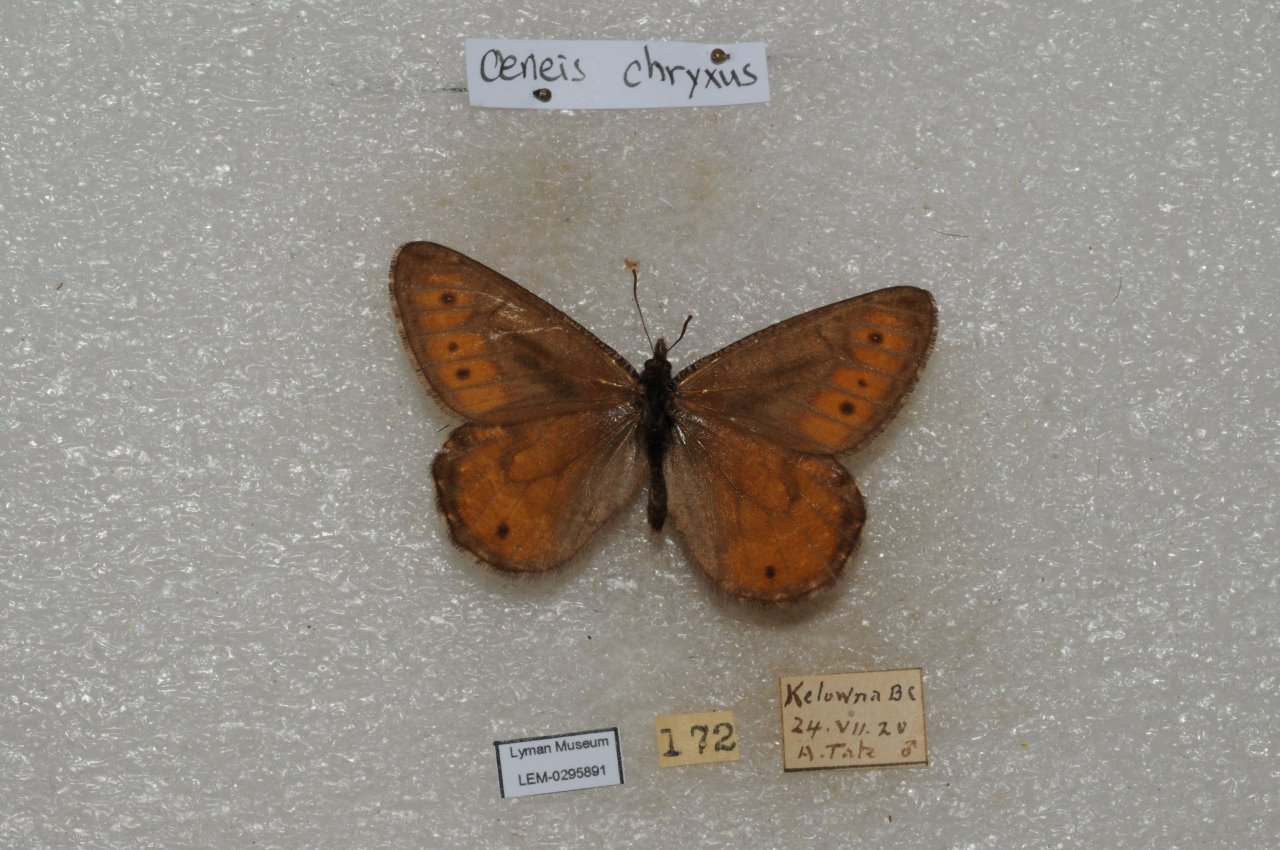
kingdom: Animalia
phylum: Arthropoda
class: Insecta
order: Lepidoptera
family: Nymphalidae
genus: Oeneis
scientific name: Oeneis chryxus
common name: Chryxus Arctic
